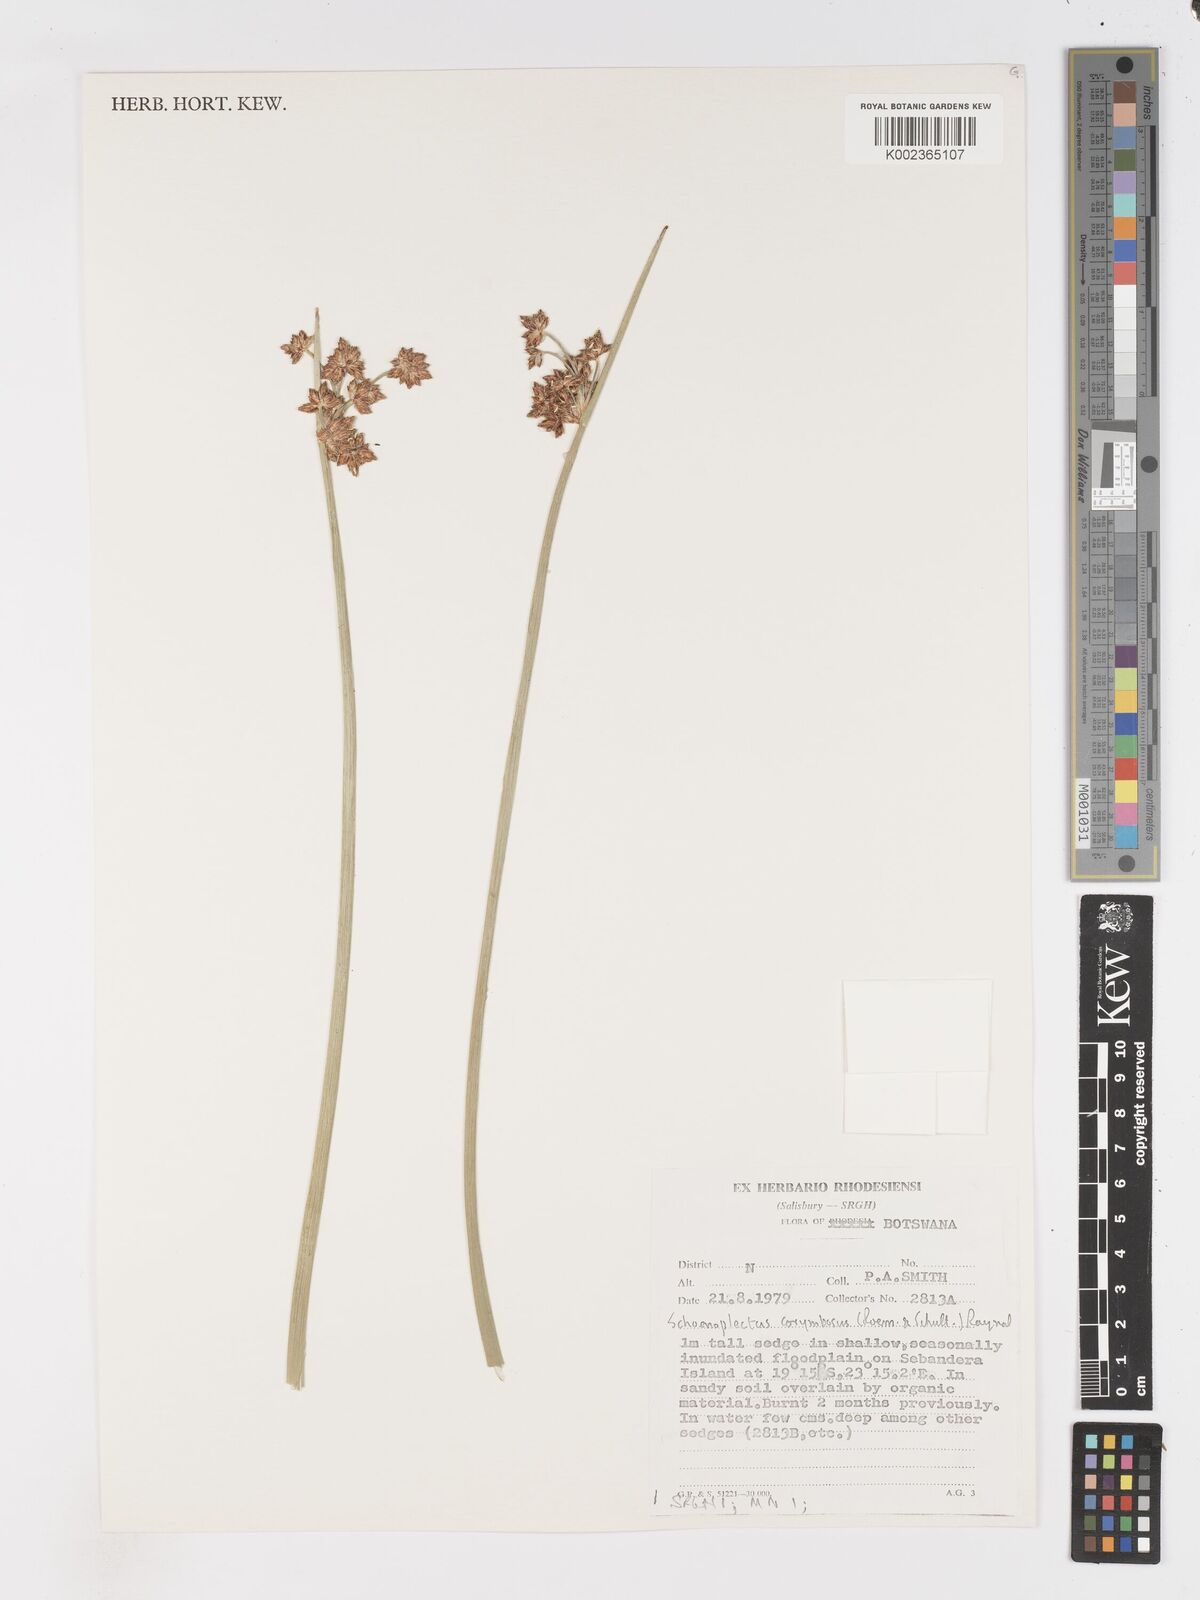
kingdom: Plantae
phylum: Tracheophyta
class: Liliopsida
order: Poales
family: Cyperaceae
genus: Schoenoplectiella
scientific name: Schoenoplectiella brachyceras
